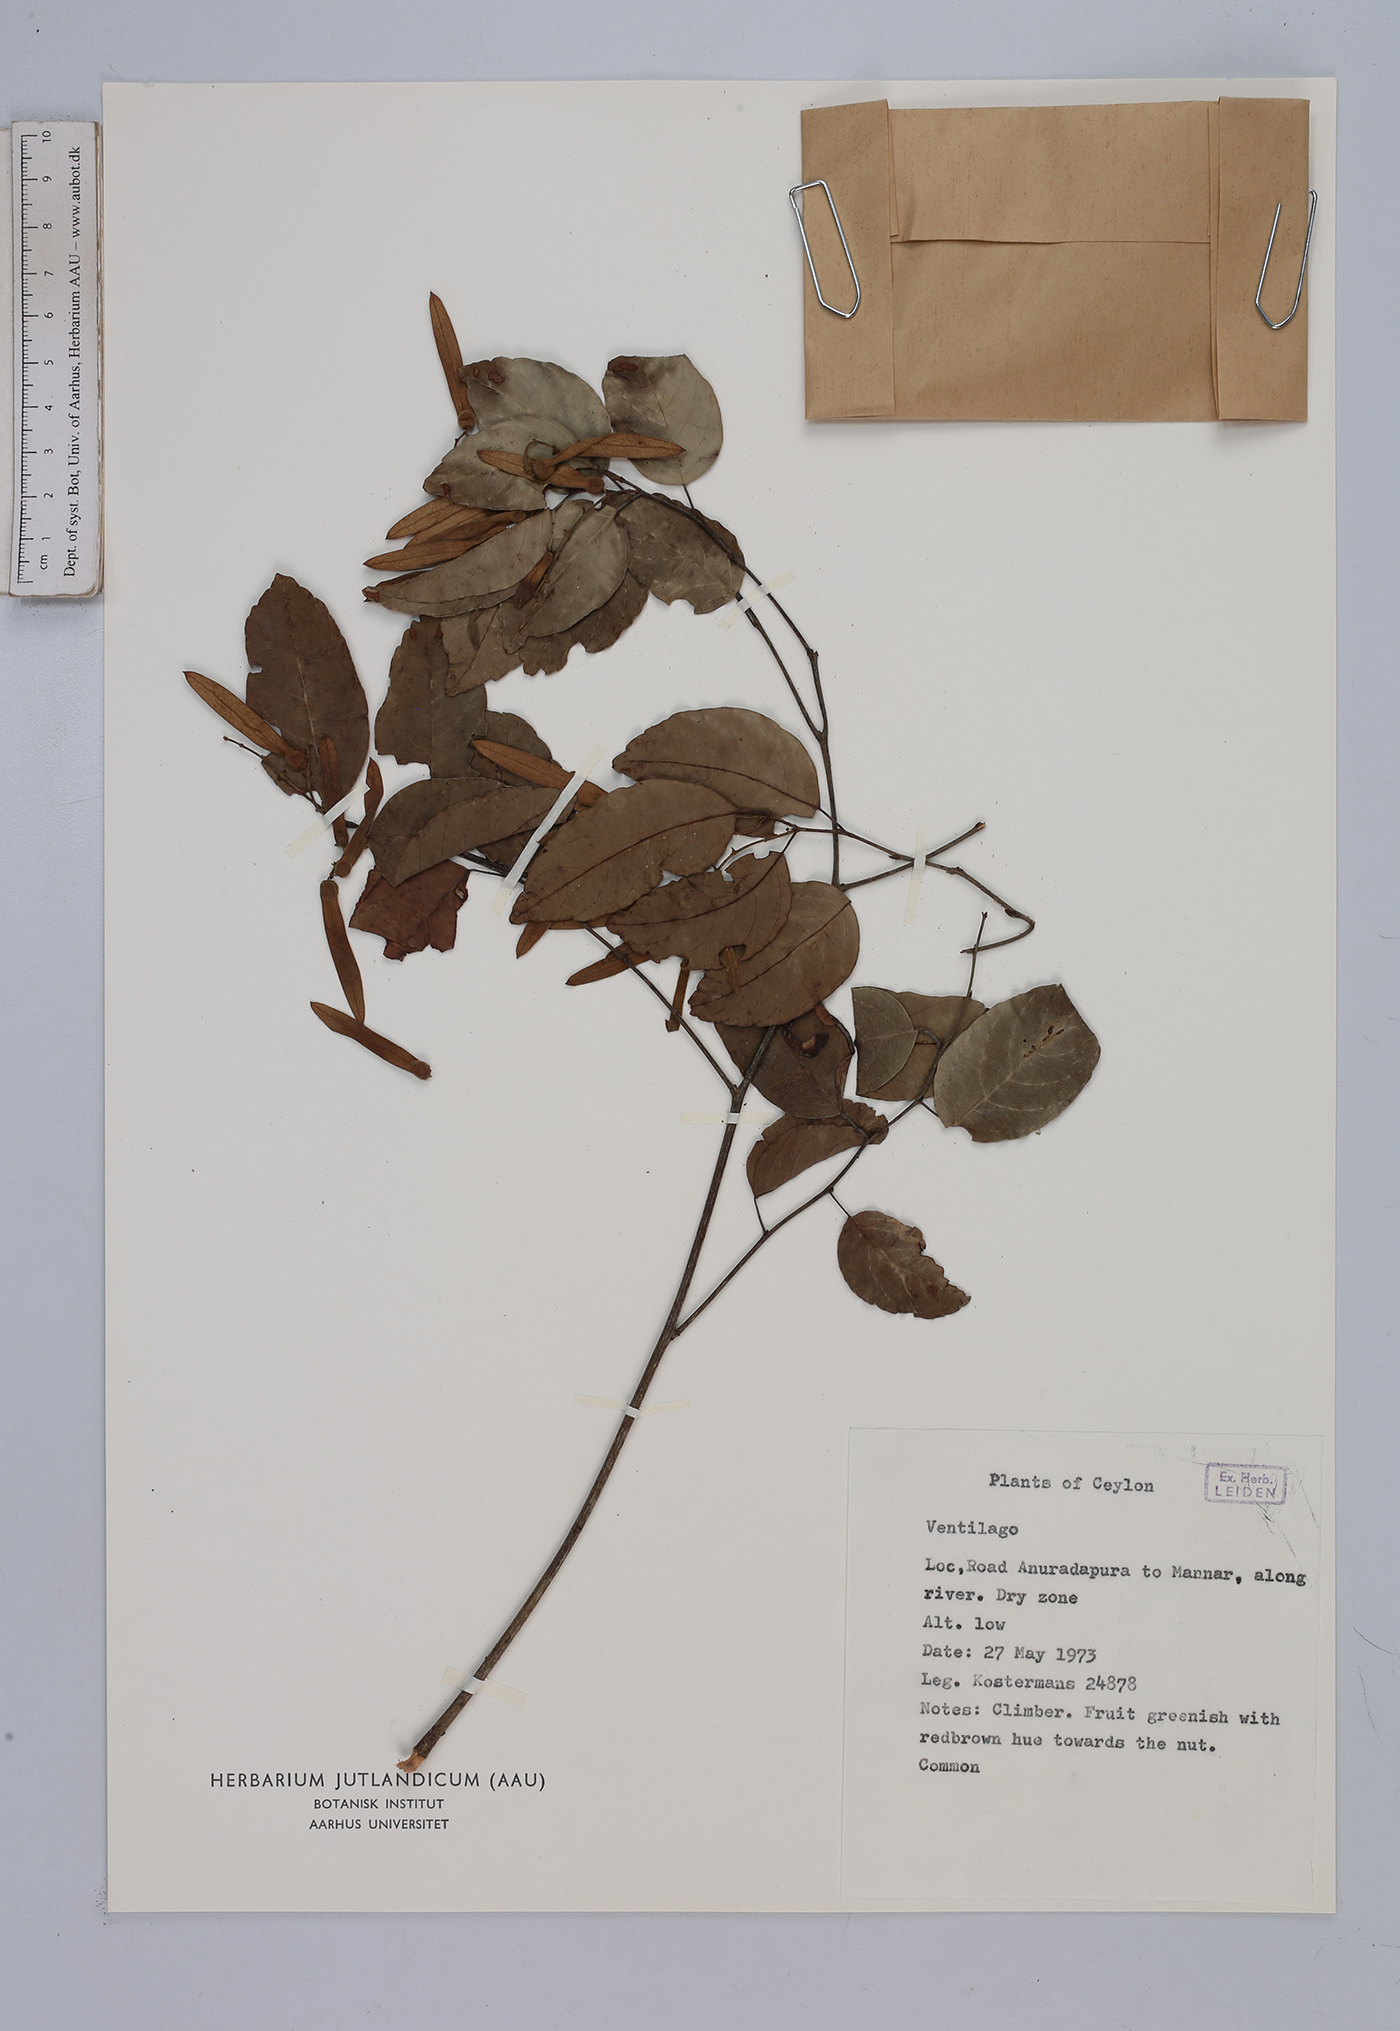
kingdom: Plantae
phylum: Tracheophyta
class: Magnoliopsida
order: Rosales
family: Rhamnaceae
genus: Ventilago
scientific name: Ventilago
